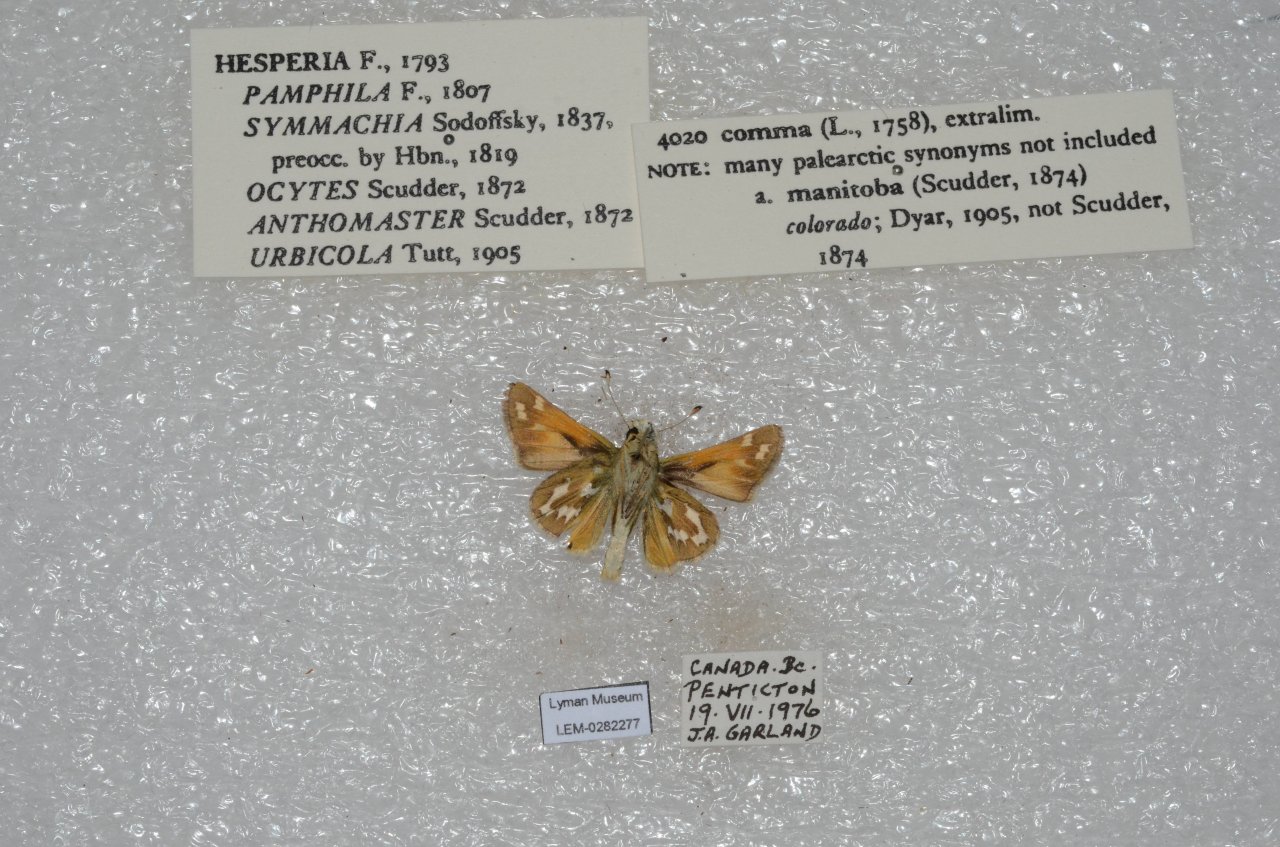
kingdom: Animalia
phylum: Arthropoda
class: Insecta
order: Lepidoptera
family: Hesperiidae
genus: Hesperia
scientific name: Hesperia comma
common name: Common Branded Skipper
